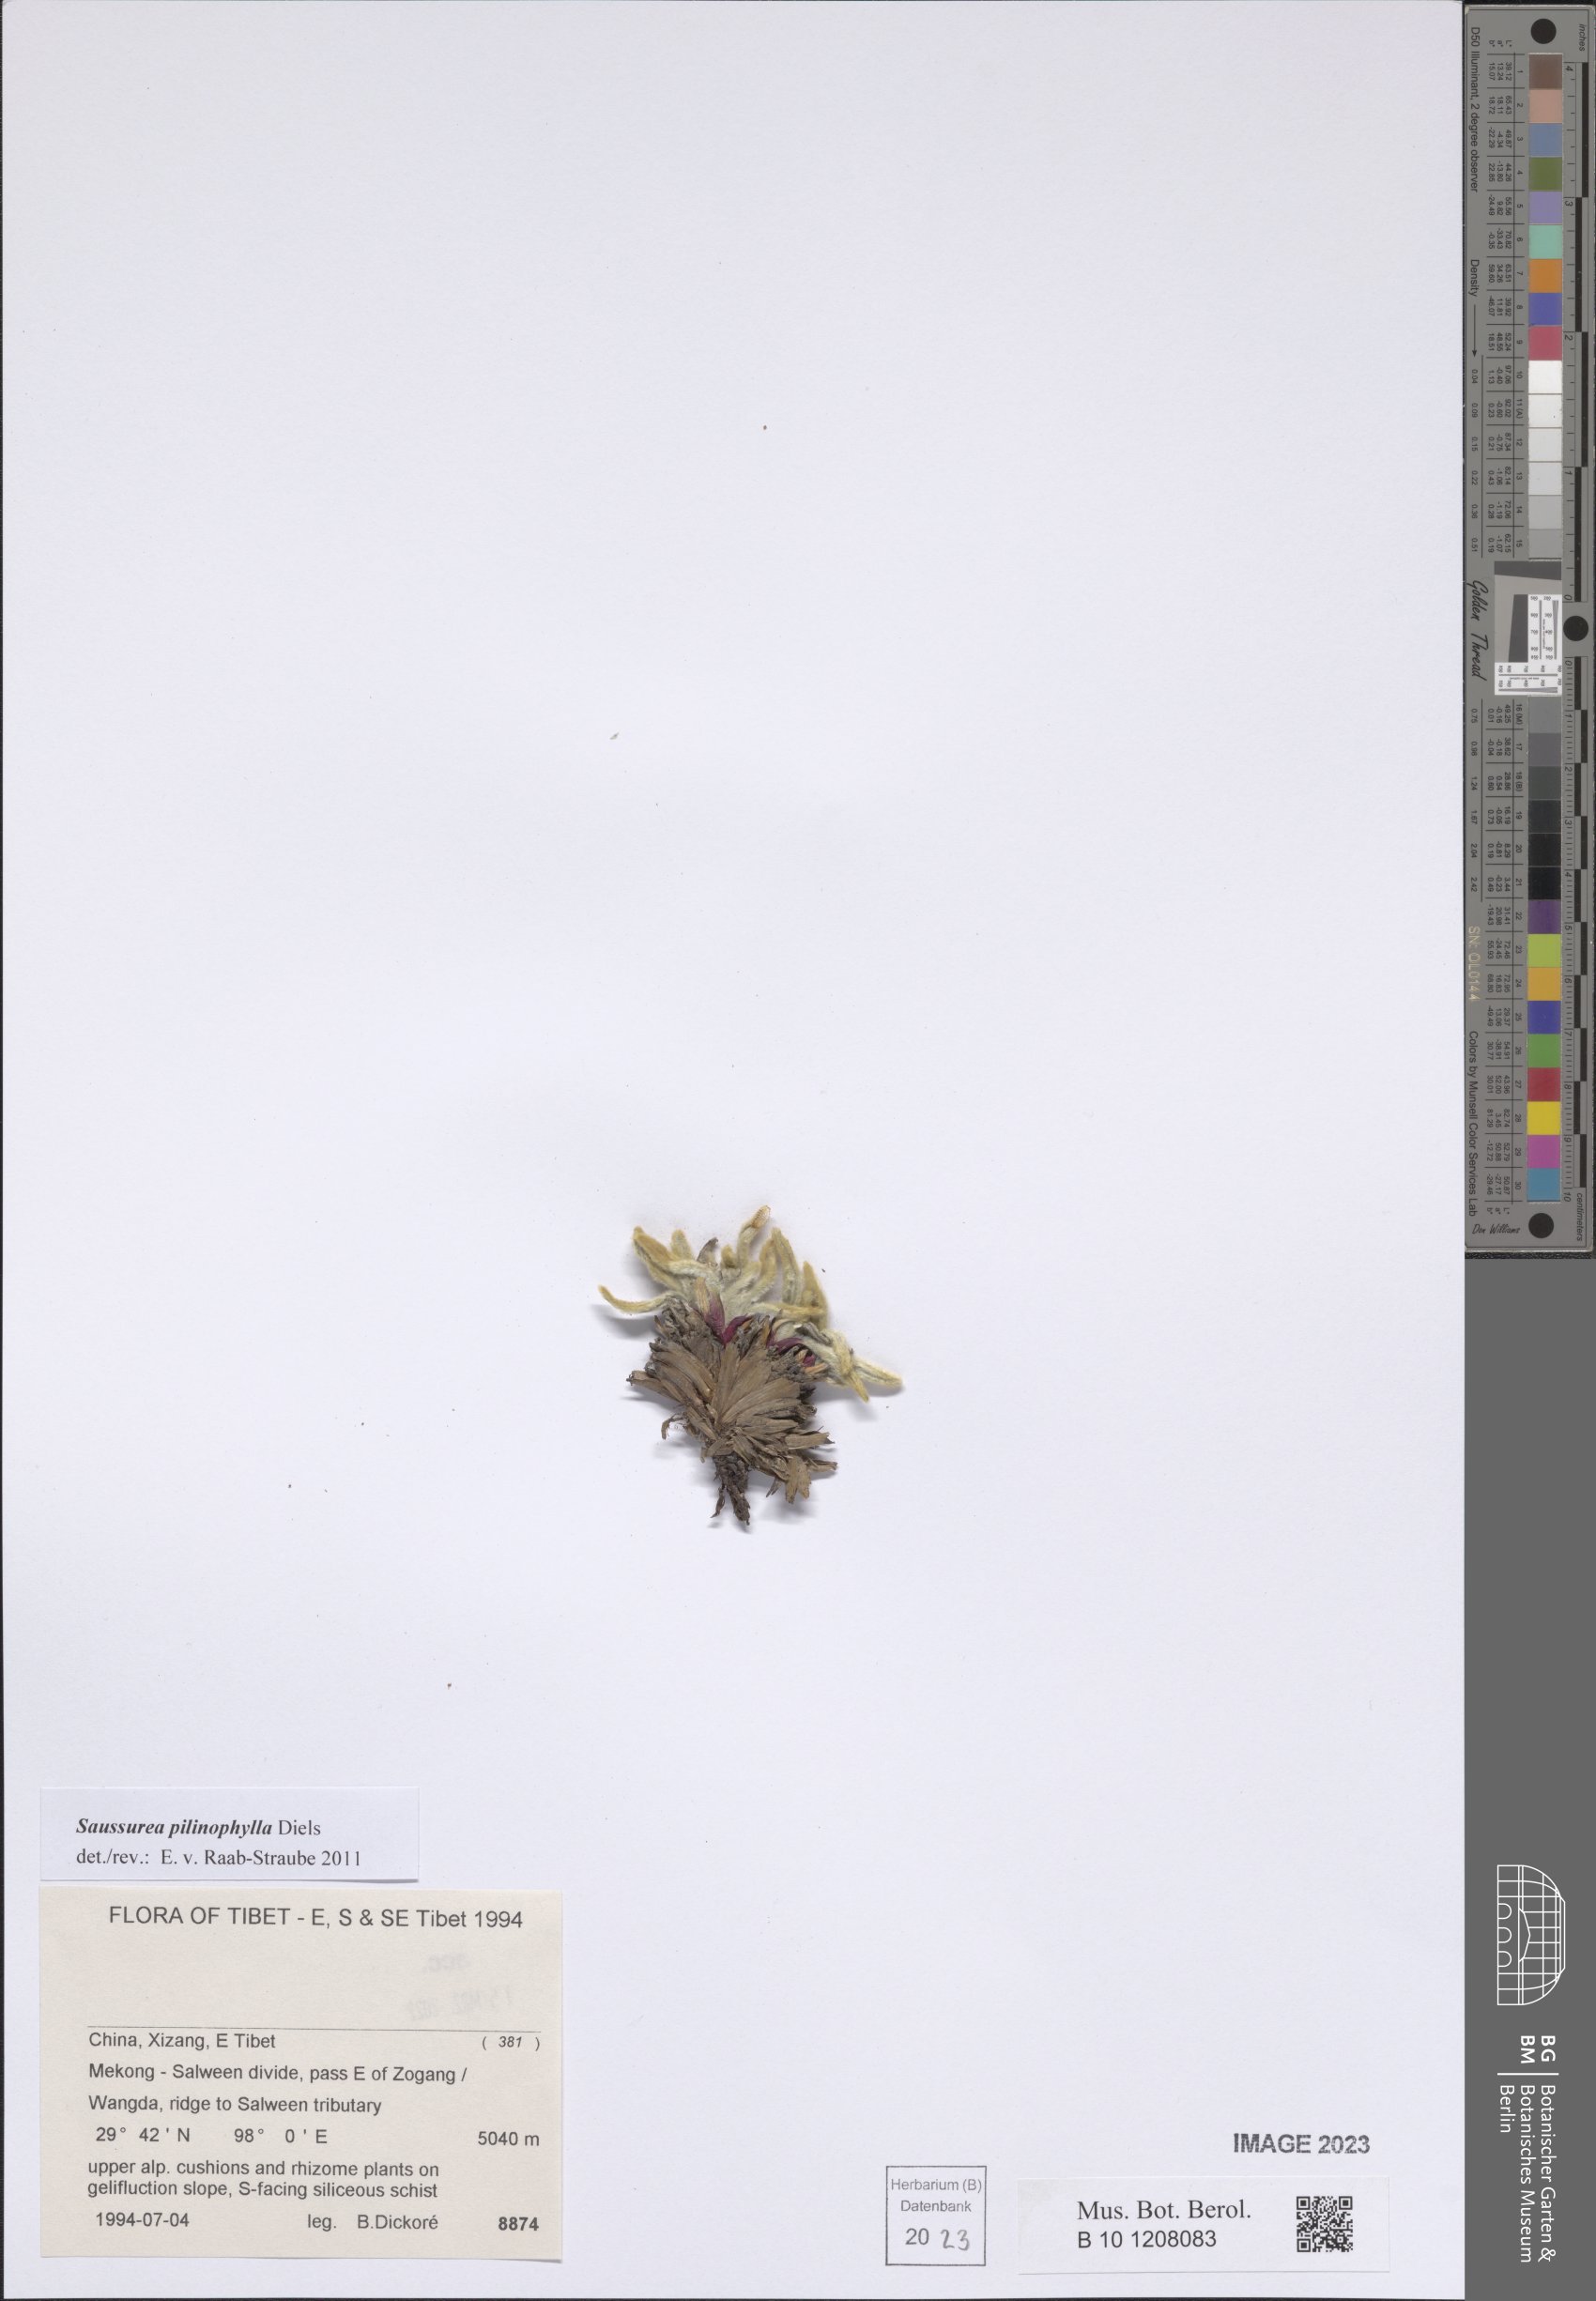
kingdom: Plantae
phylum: Tracheophyta
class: Magnoliopsida
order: Asterales
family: Asteraceae
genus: Saussurea
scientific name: Saussurea pilinophylla
